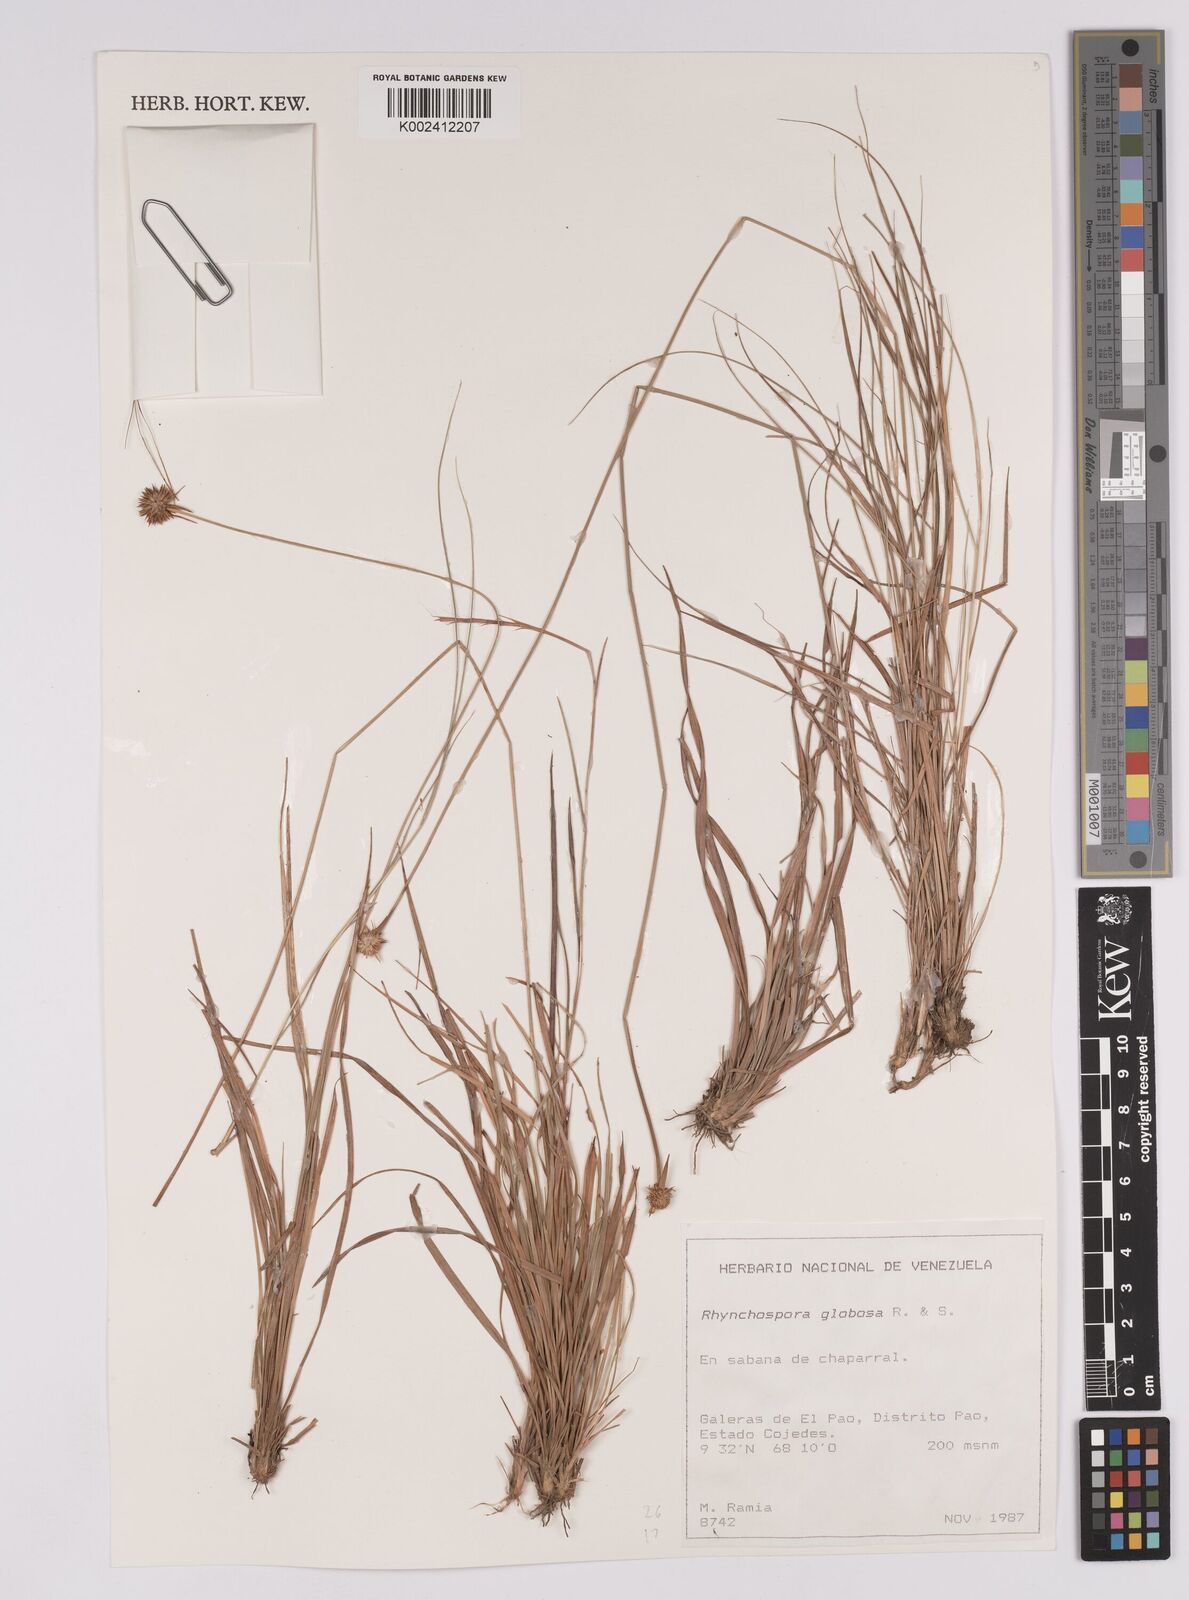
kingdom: Plantae
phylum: Tracheophyta
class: Liliopsida
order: Poales
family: Cyperaceae
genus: Rhynchospora
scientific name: Rhynchospora globosa
